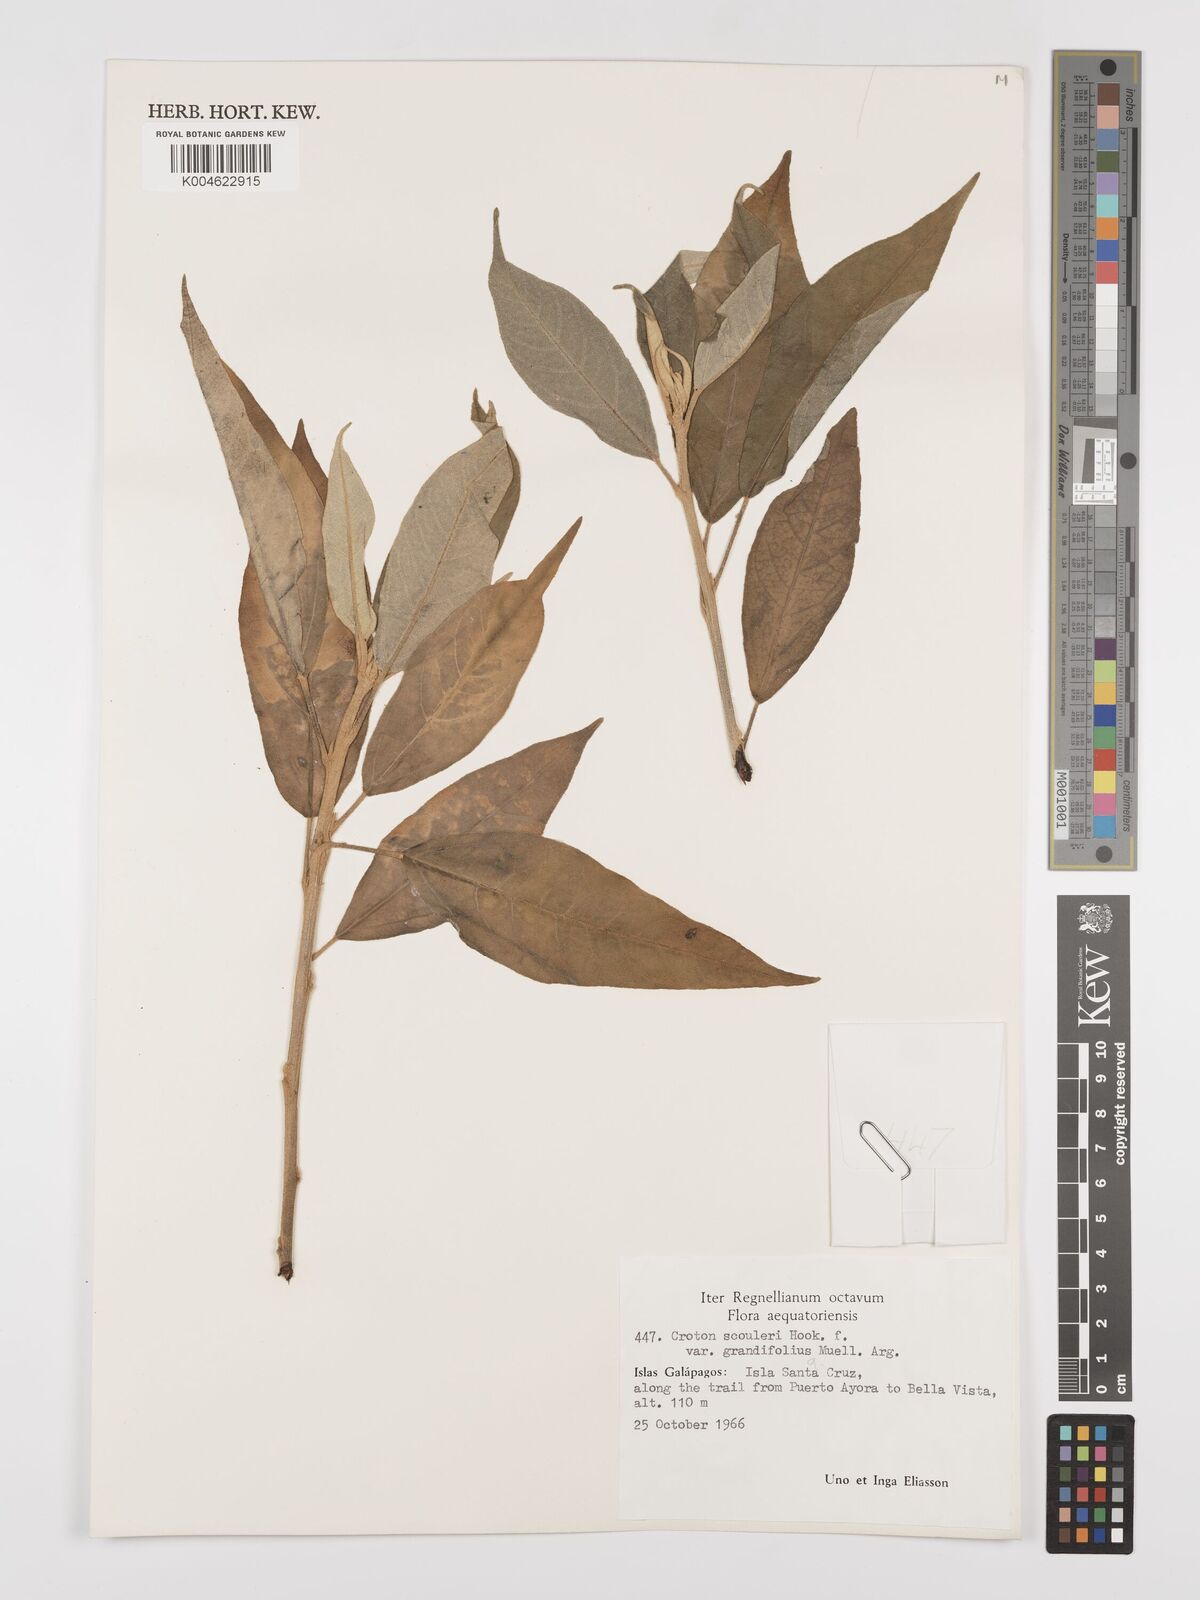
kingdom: Plantae
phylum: Tracheophyta
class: Magnoliopsida
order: Malpighiales
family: Euphorbiaceae
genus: Croton
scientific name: Croton scouleri
